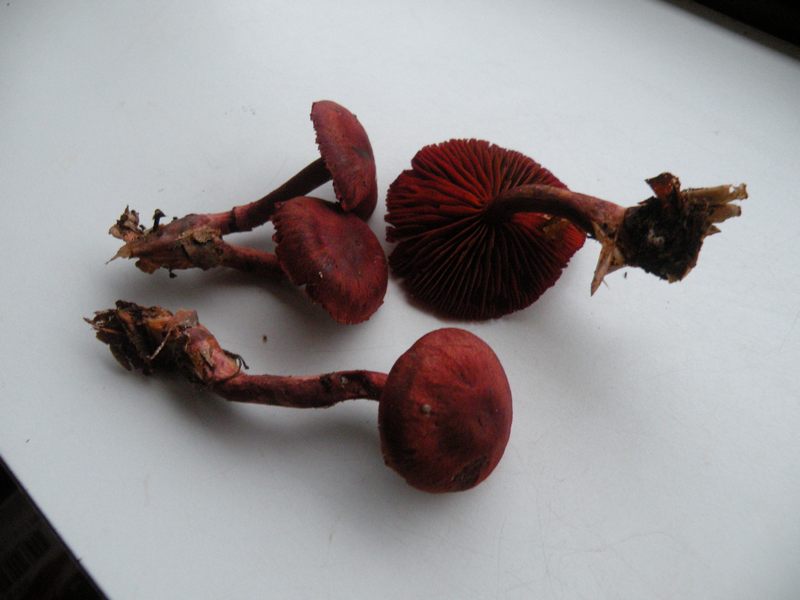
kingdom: Fungi
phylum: Basidiomycota
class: Agaricomycetes
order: Agaricales
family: Cortinariaceae
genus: Cortinarius
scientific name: Cortinarius sanguineus
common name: Bloodred webcap
